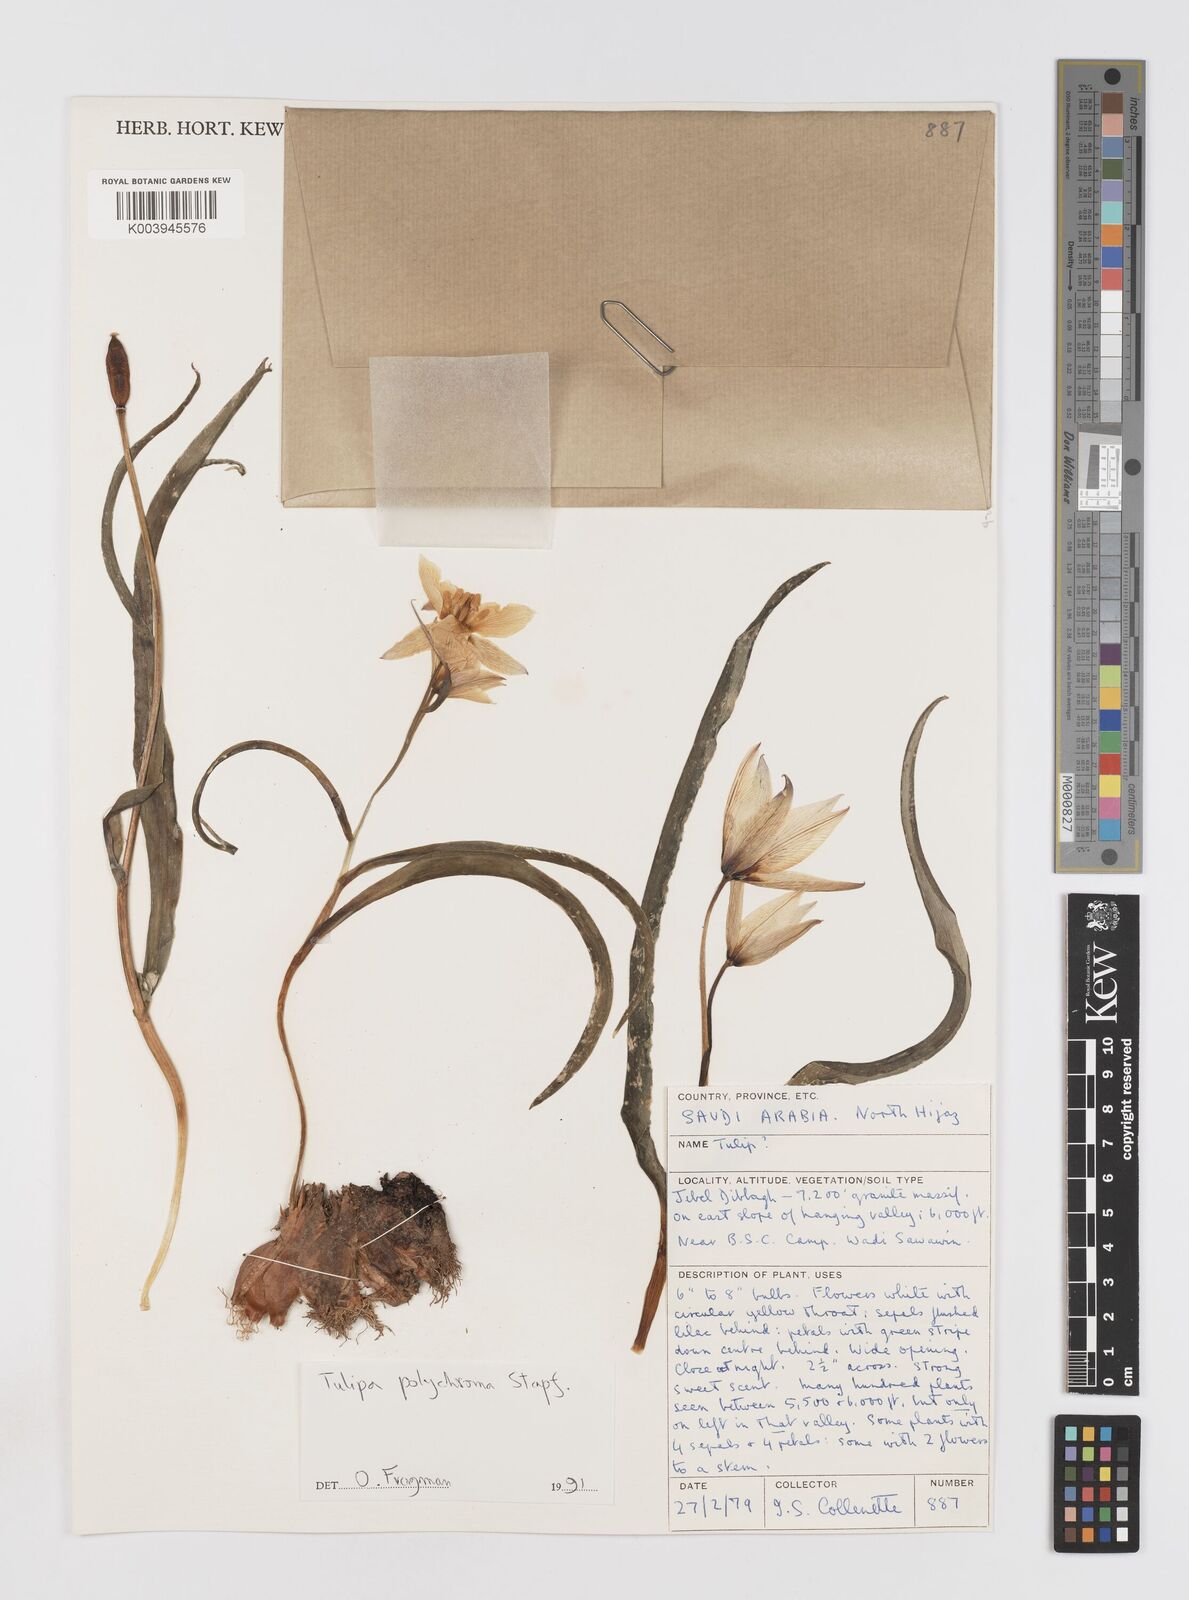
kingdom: Plantae
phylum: Tracheophyta
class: Liliopsida
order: Liliales
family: Liliaceae
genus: Tulipa
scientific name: Tulipa biflora
